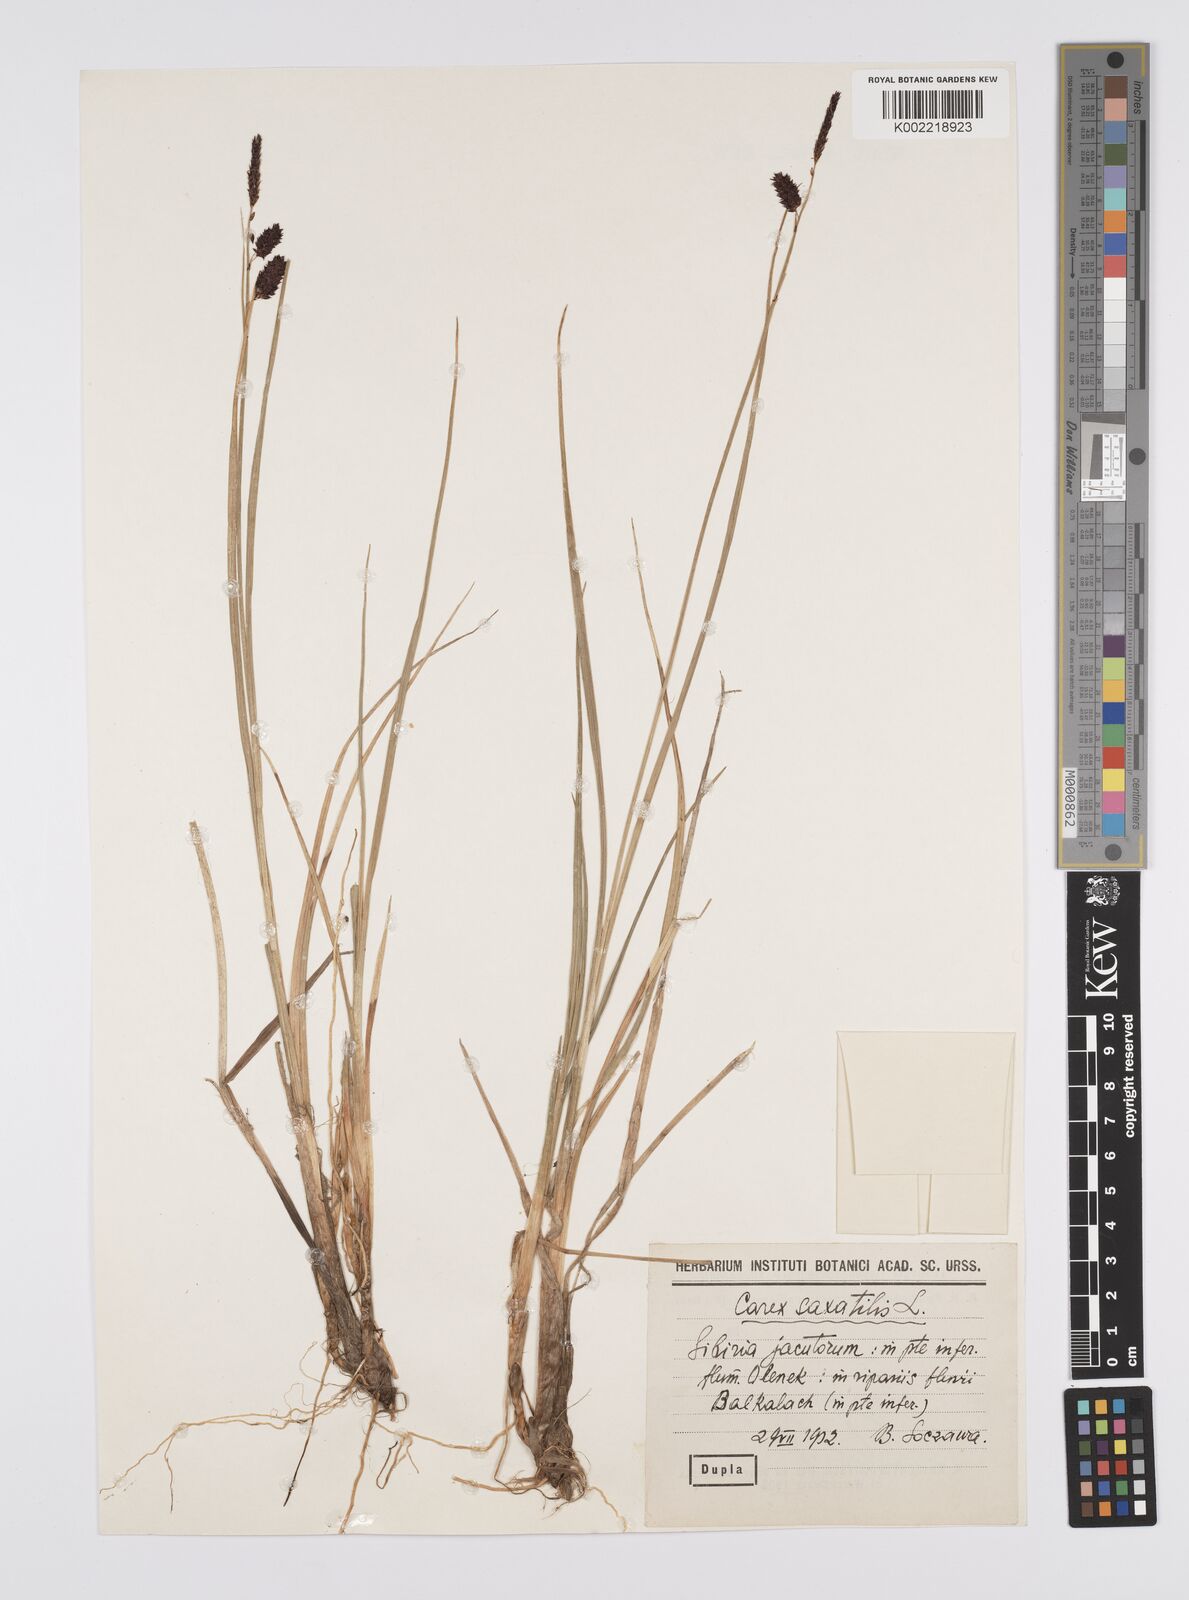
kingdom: Plantae
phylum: Tracheophyta
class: Liliopsida
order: Poales
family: Cyperaceae
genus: Carex
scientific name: Carex saxatilis
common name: Russet sedge
